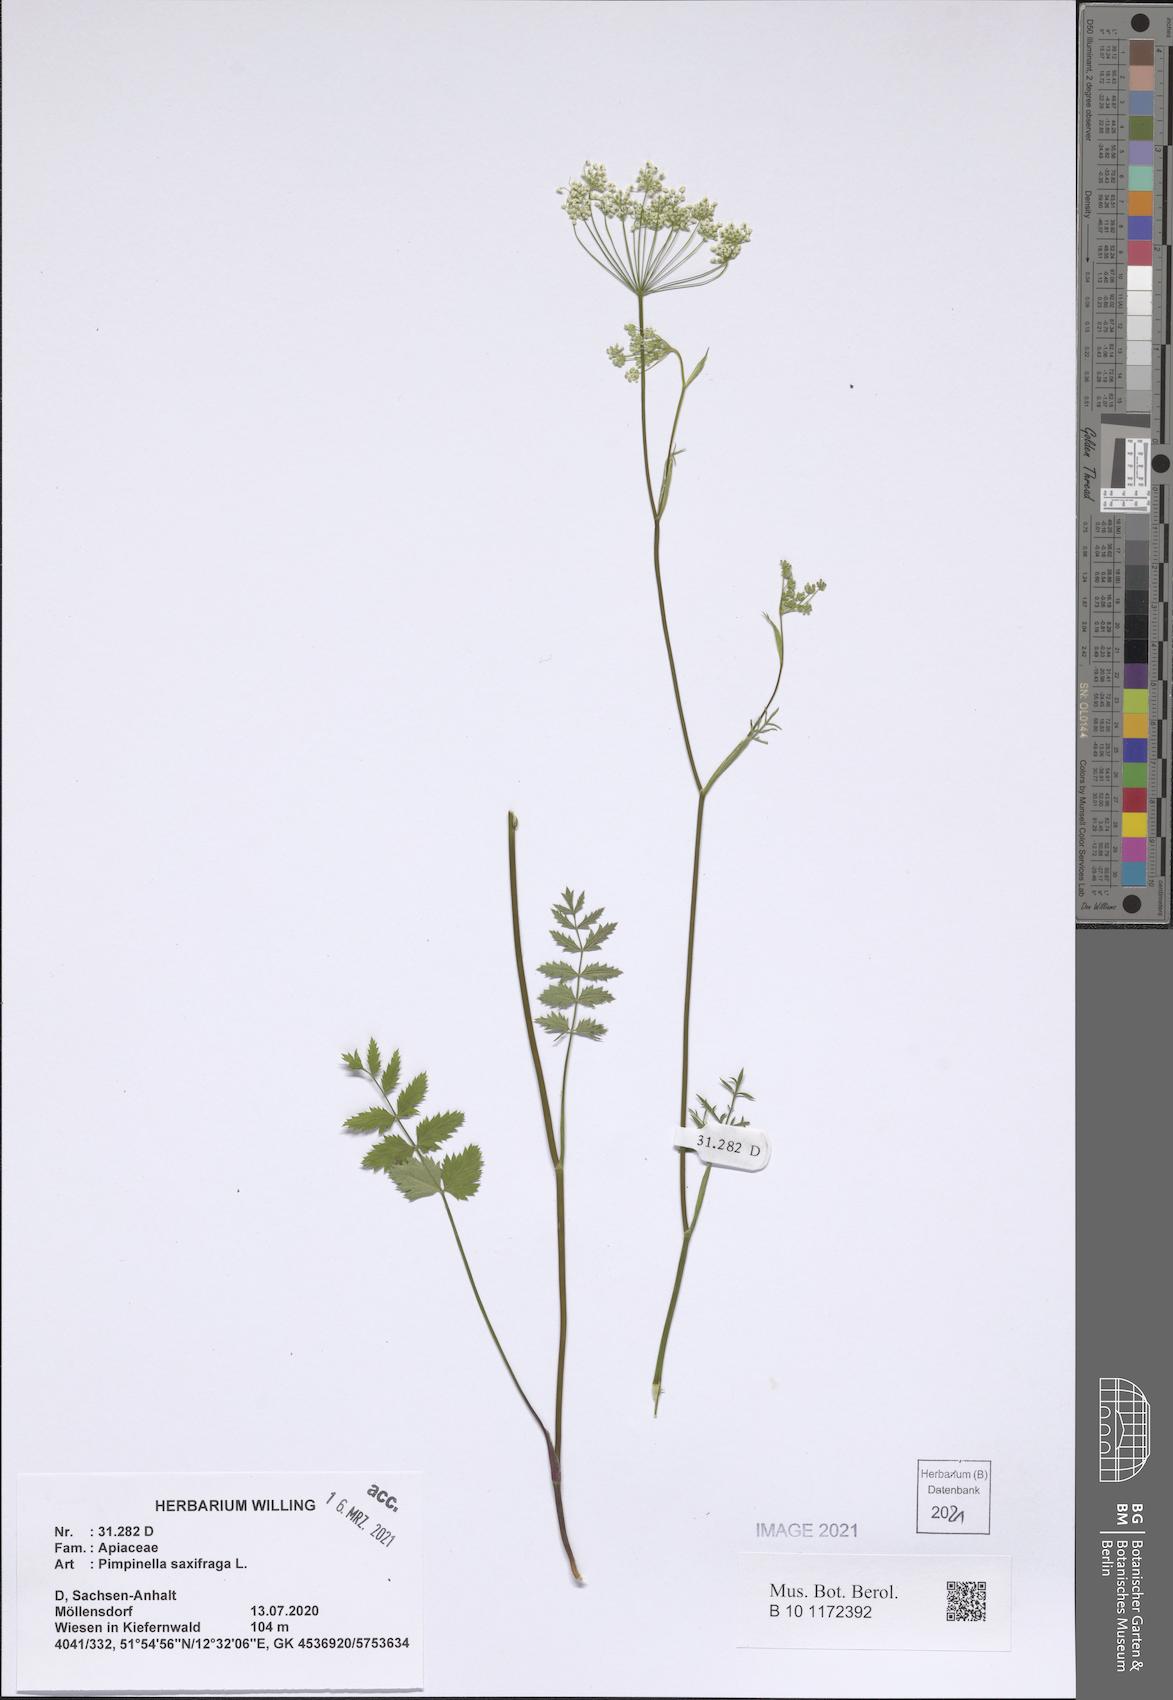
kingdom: Plantae
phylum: Tracheophyta
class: Magnoliopsida
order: Apiales
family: Apiaceae
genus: Pimpinella
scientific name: Pimpinella saxifraga
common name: Burnet-saxifrage
